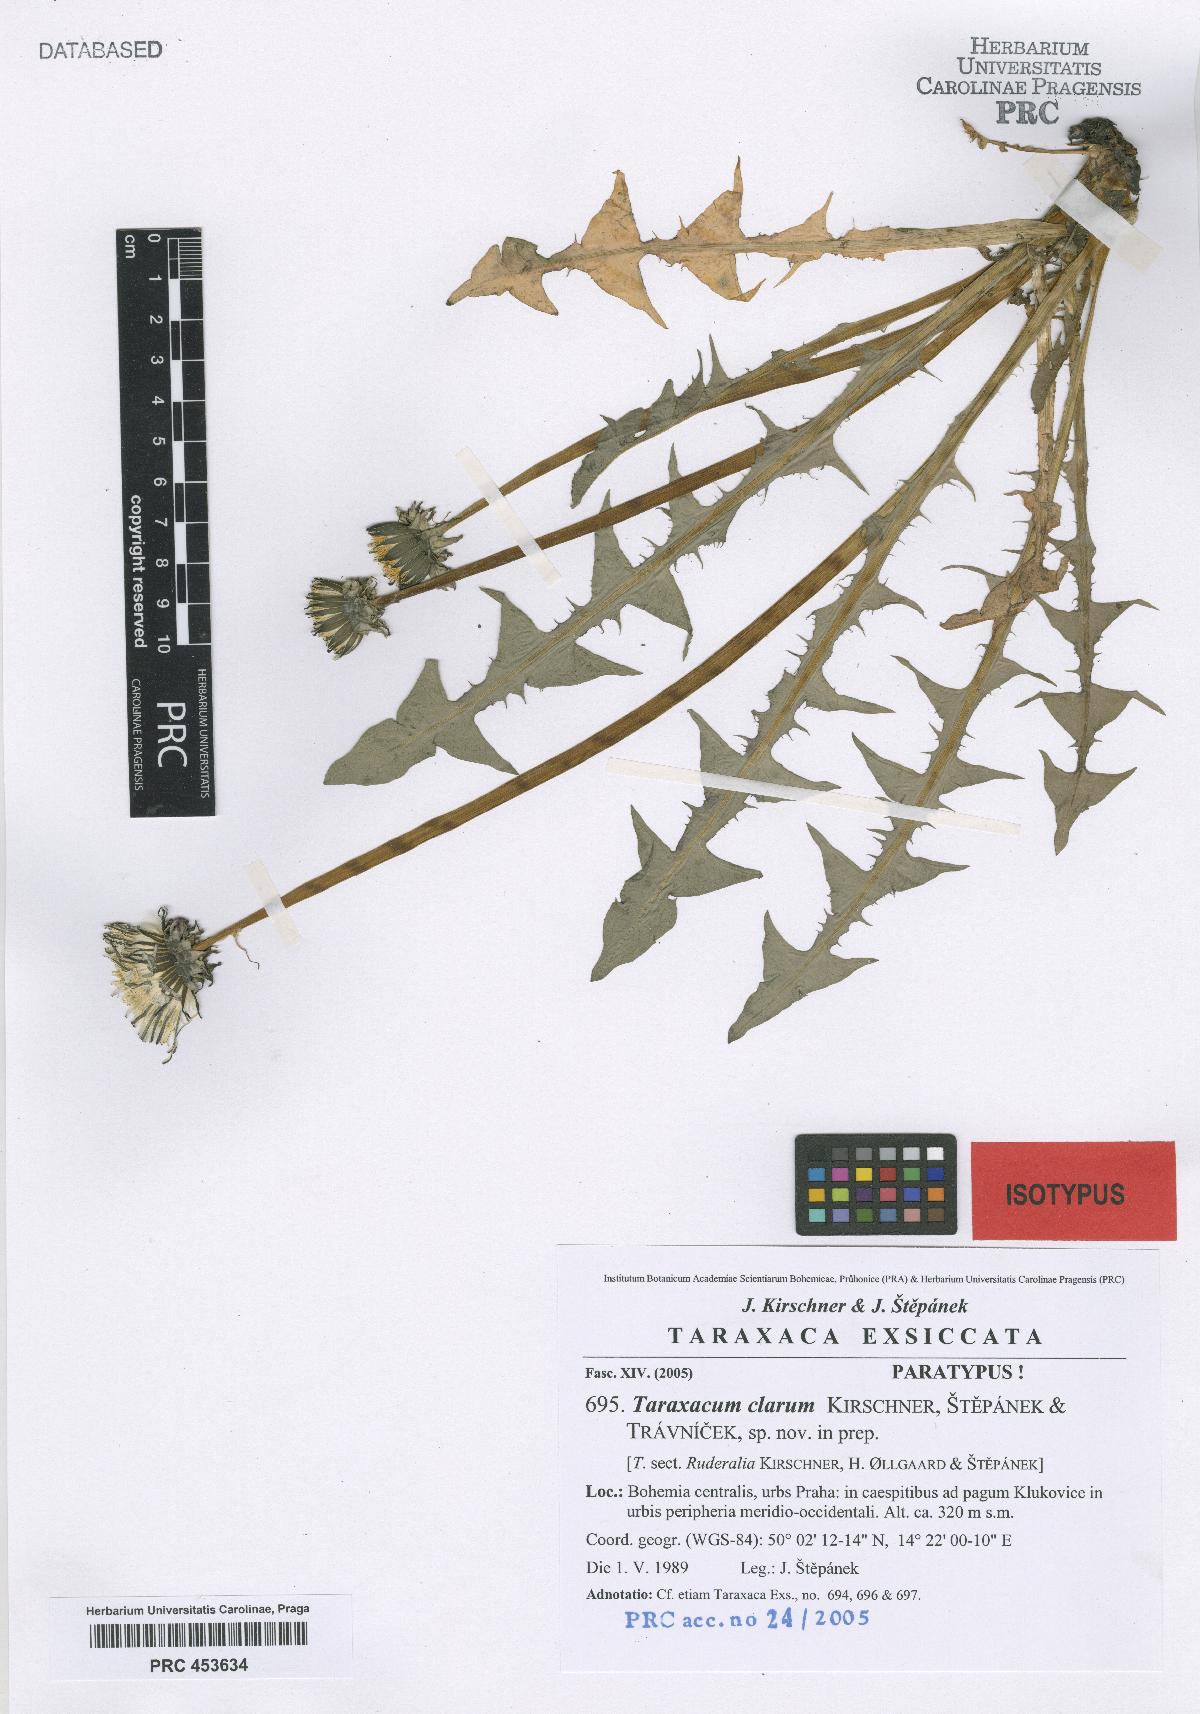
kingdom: Plantae
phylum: Tracheophyta
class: Magnoliopsida
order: Asterales
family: Asteraceae
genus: Taraxacum
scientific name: Taraxacum caninum
